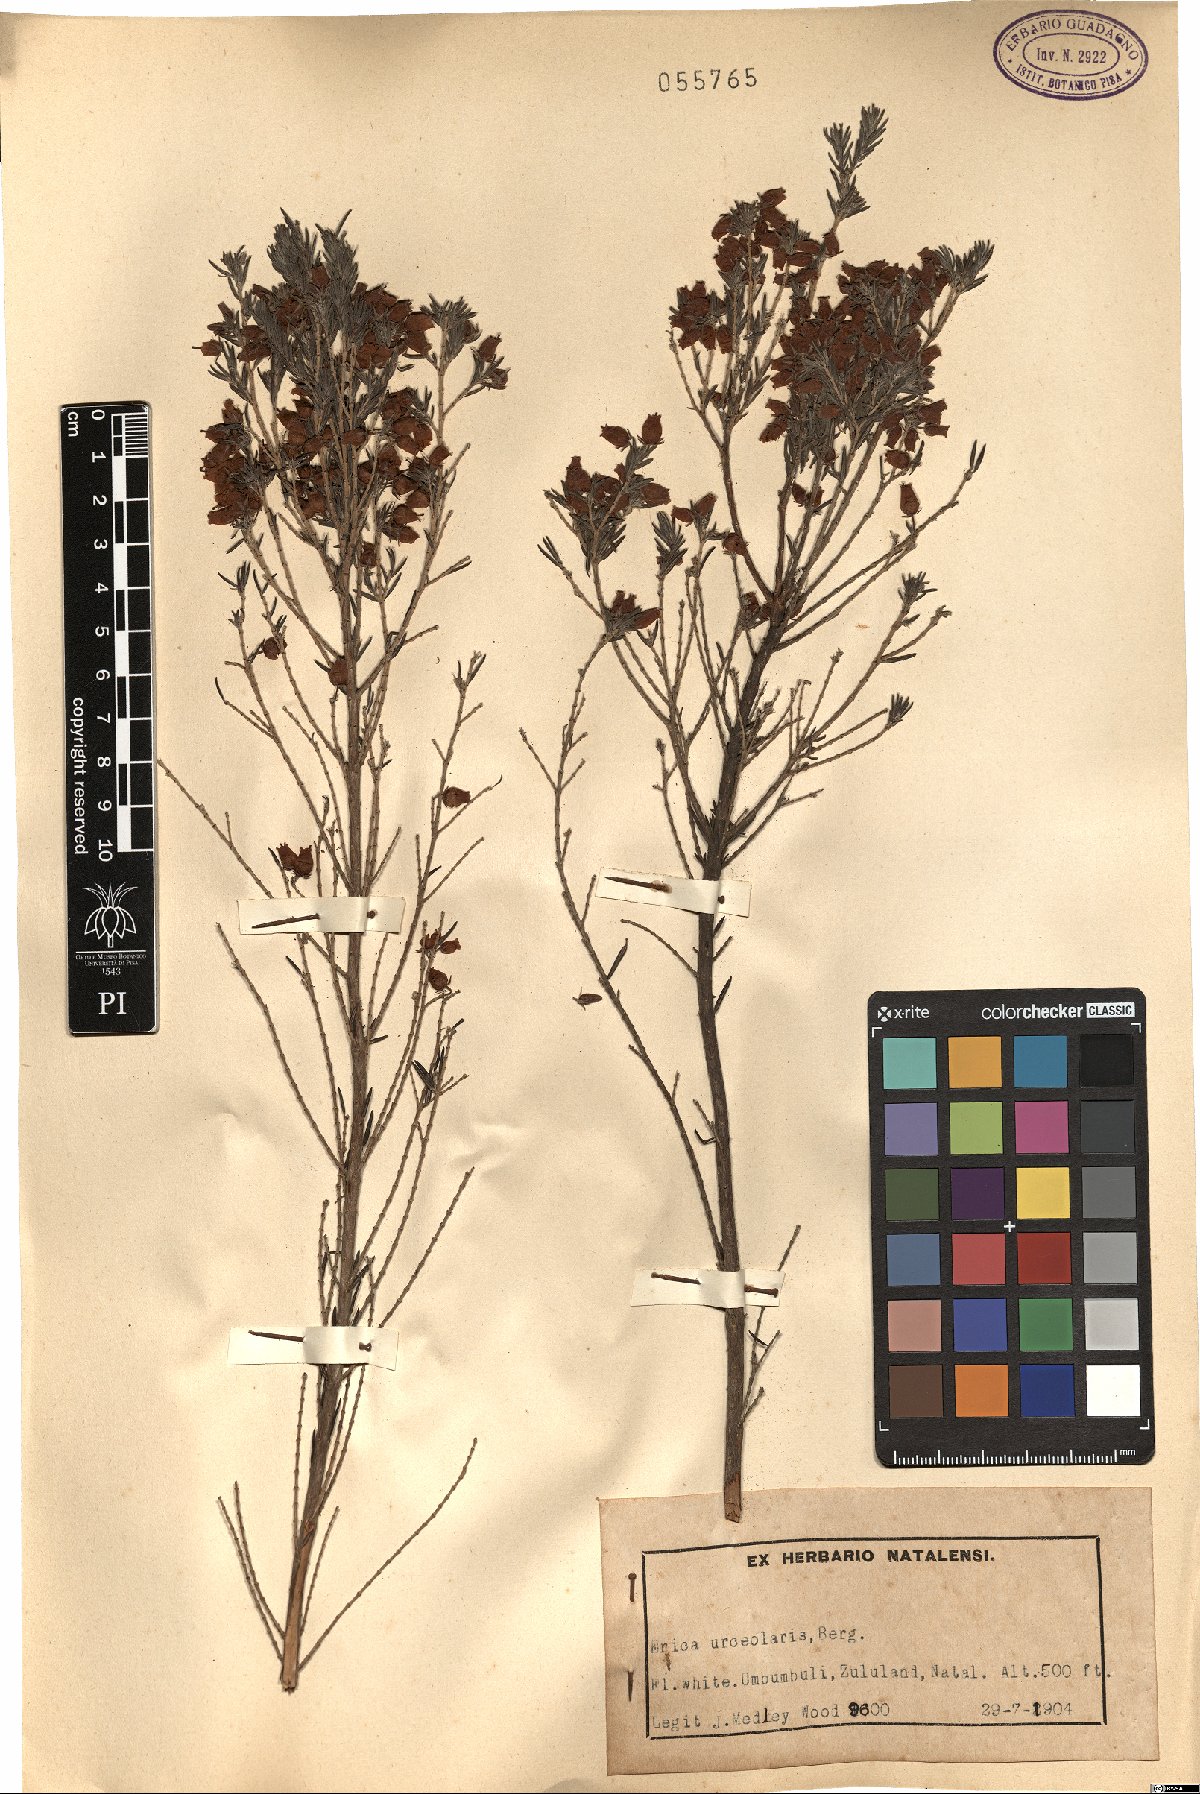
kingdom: Plantae
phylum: Tracheophyta
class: Magnoliopsida
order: Ericales
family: Ericaceae
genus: Erica
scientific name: Erica caffra
